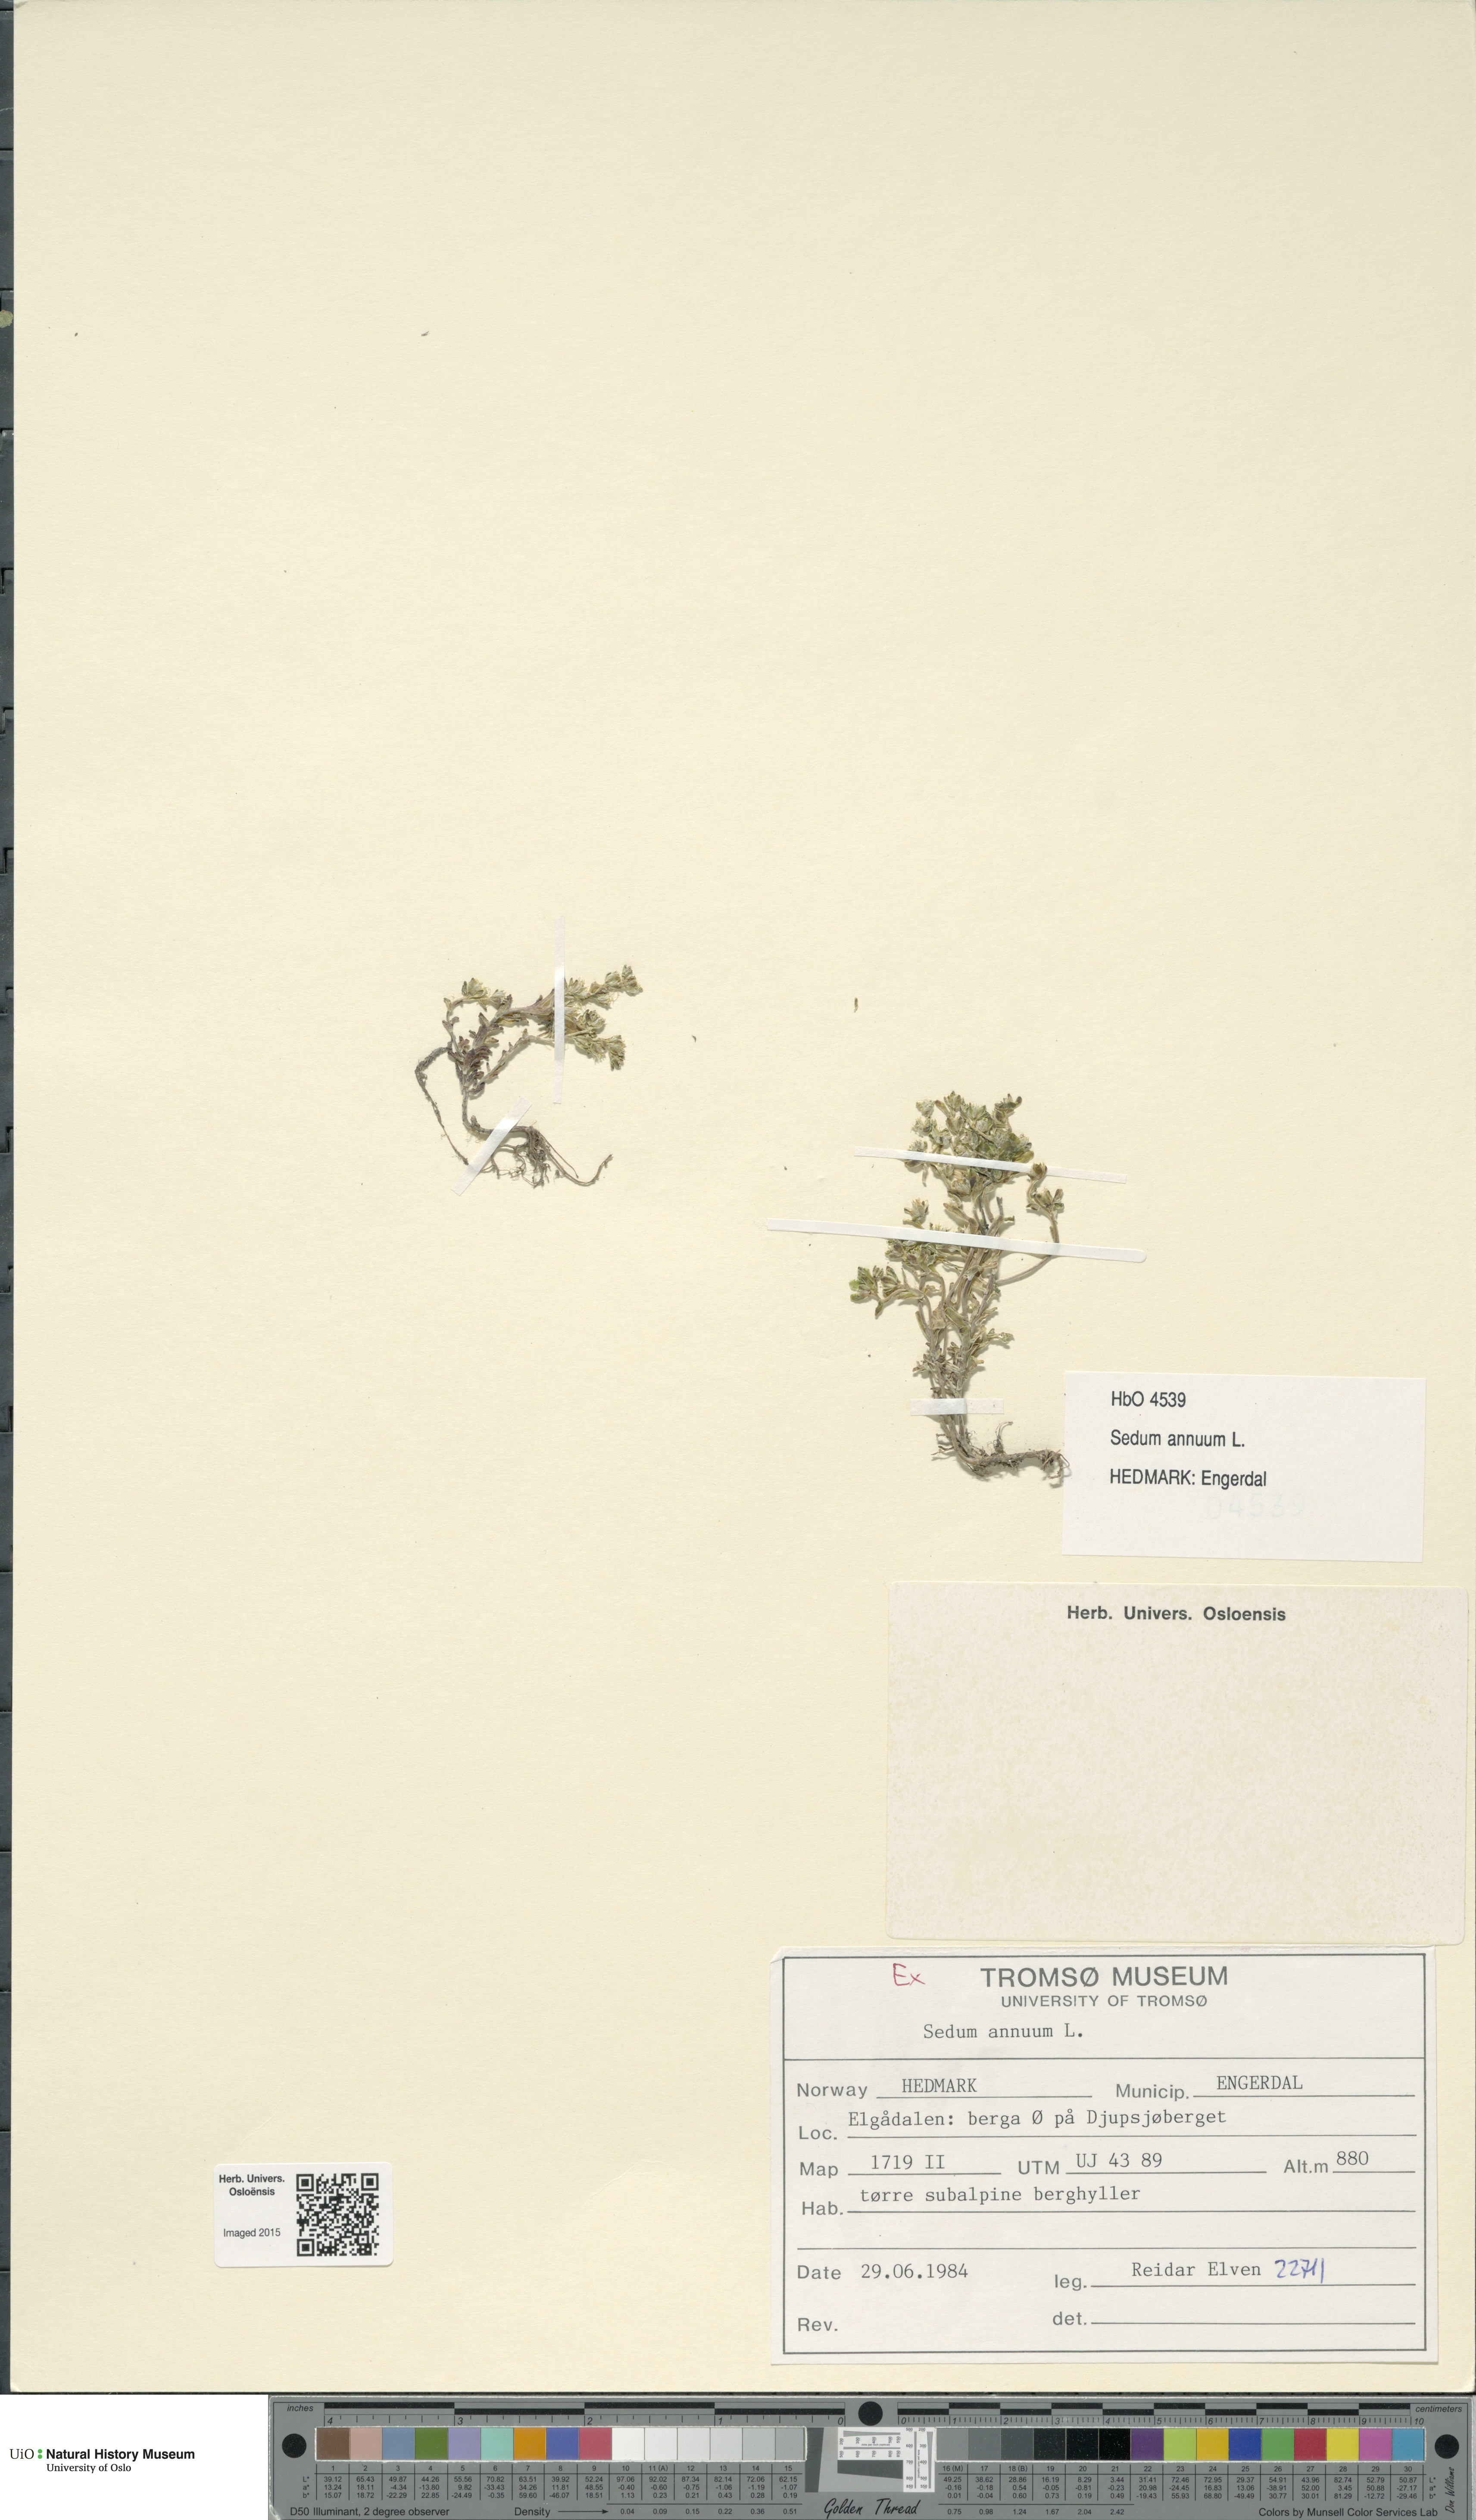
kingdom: Plantae
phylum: Tracheophyta
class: Magnoliopsida
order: Saxifragales
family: Crassulaceae
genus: Sedum
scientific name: Sedum annuum
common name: Annual stonecrop
